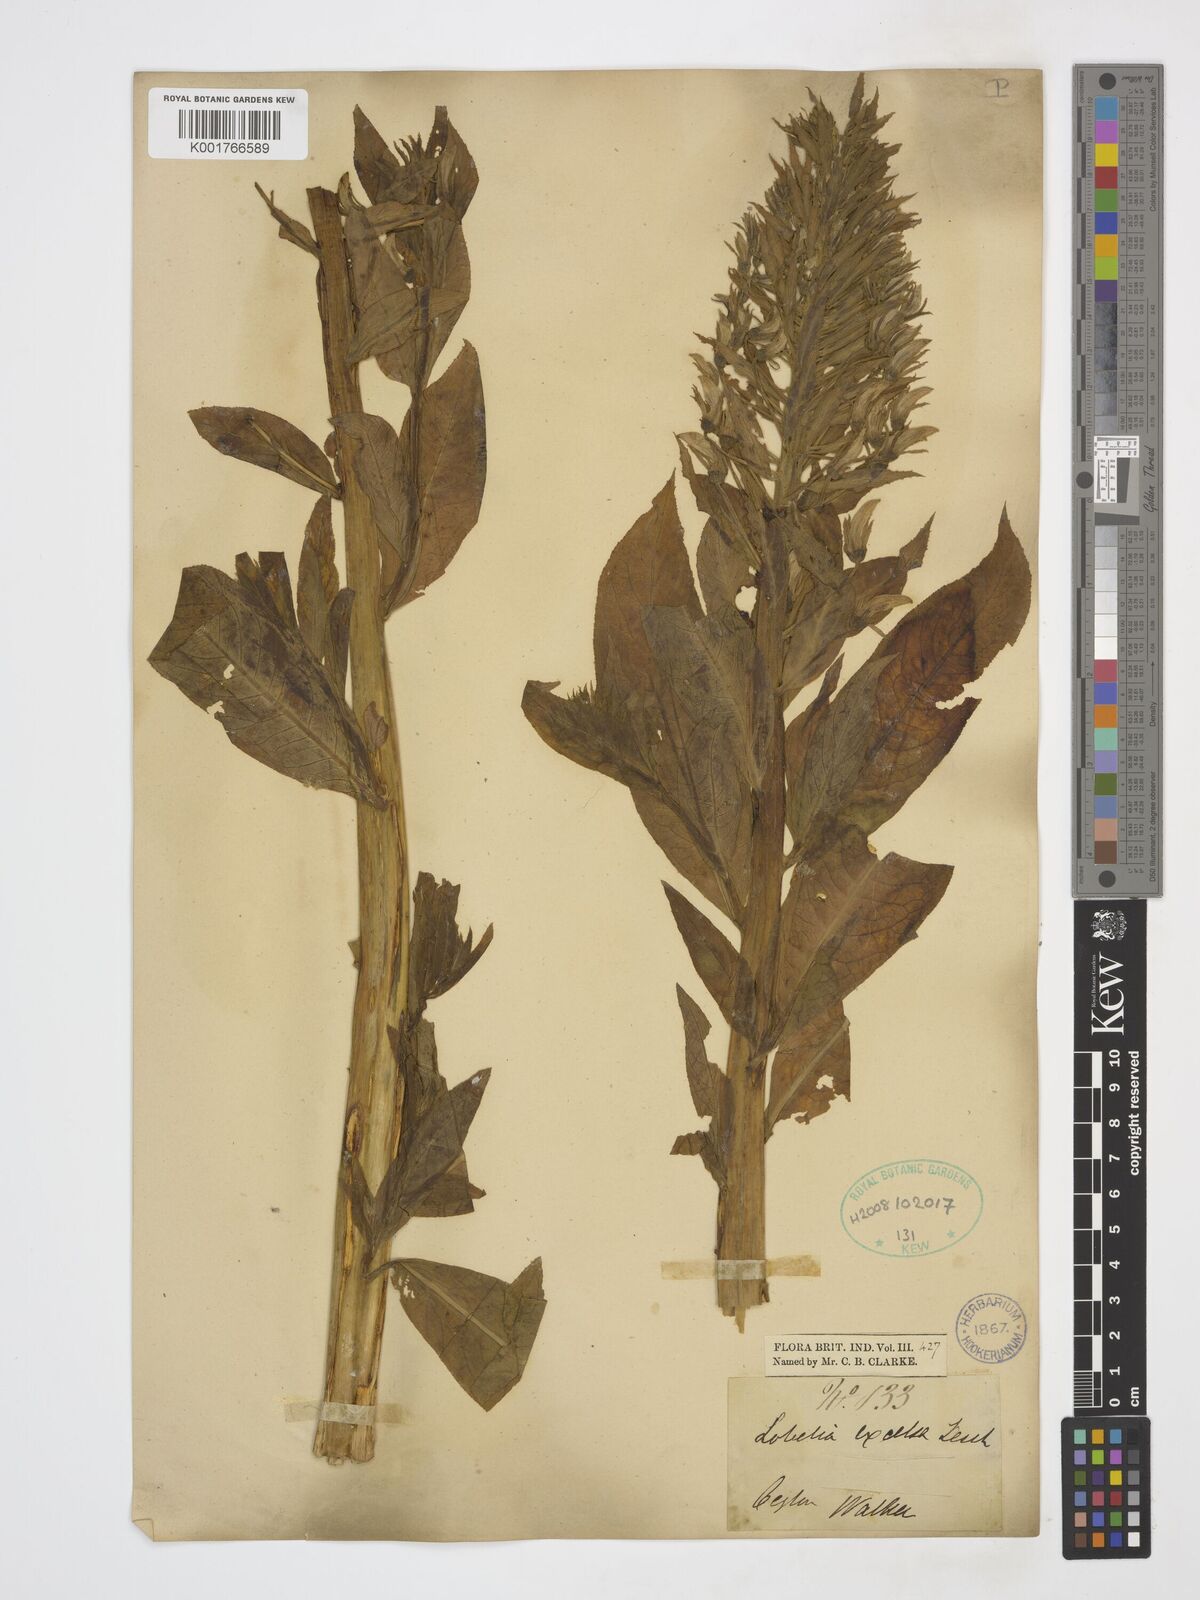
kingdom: Plantae
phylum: Tracheophyta
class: Magnoliopsida
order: Asterales
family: Campanulaceae
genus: Lobelia
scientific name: Lobelia excelsa
